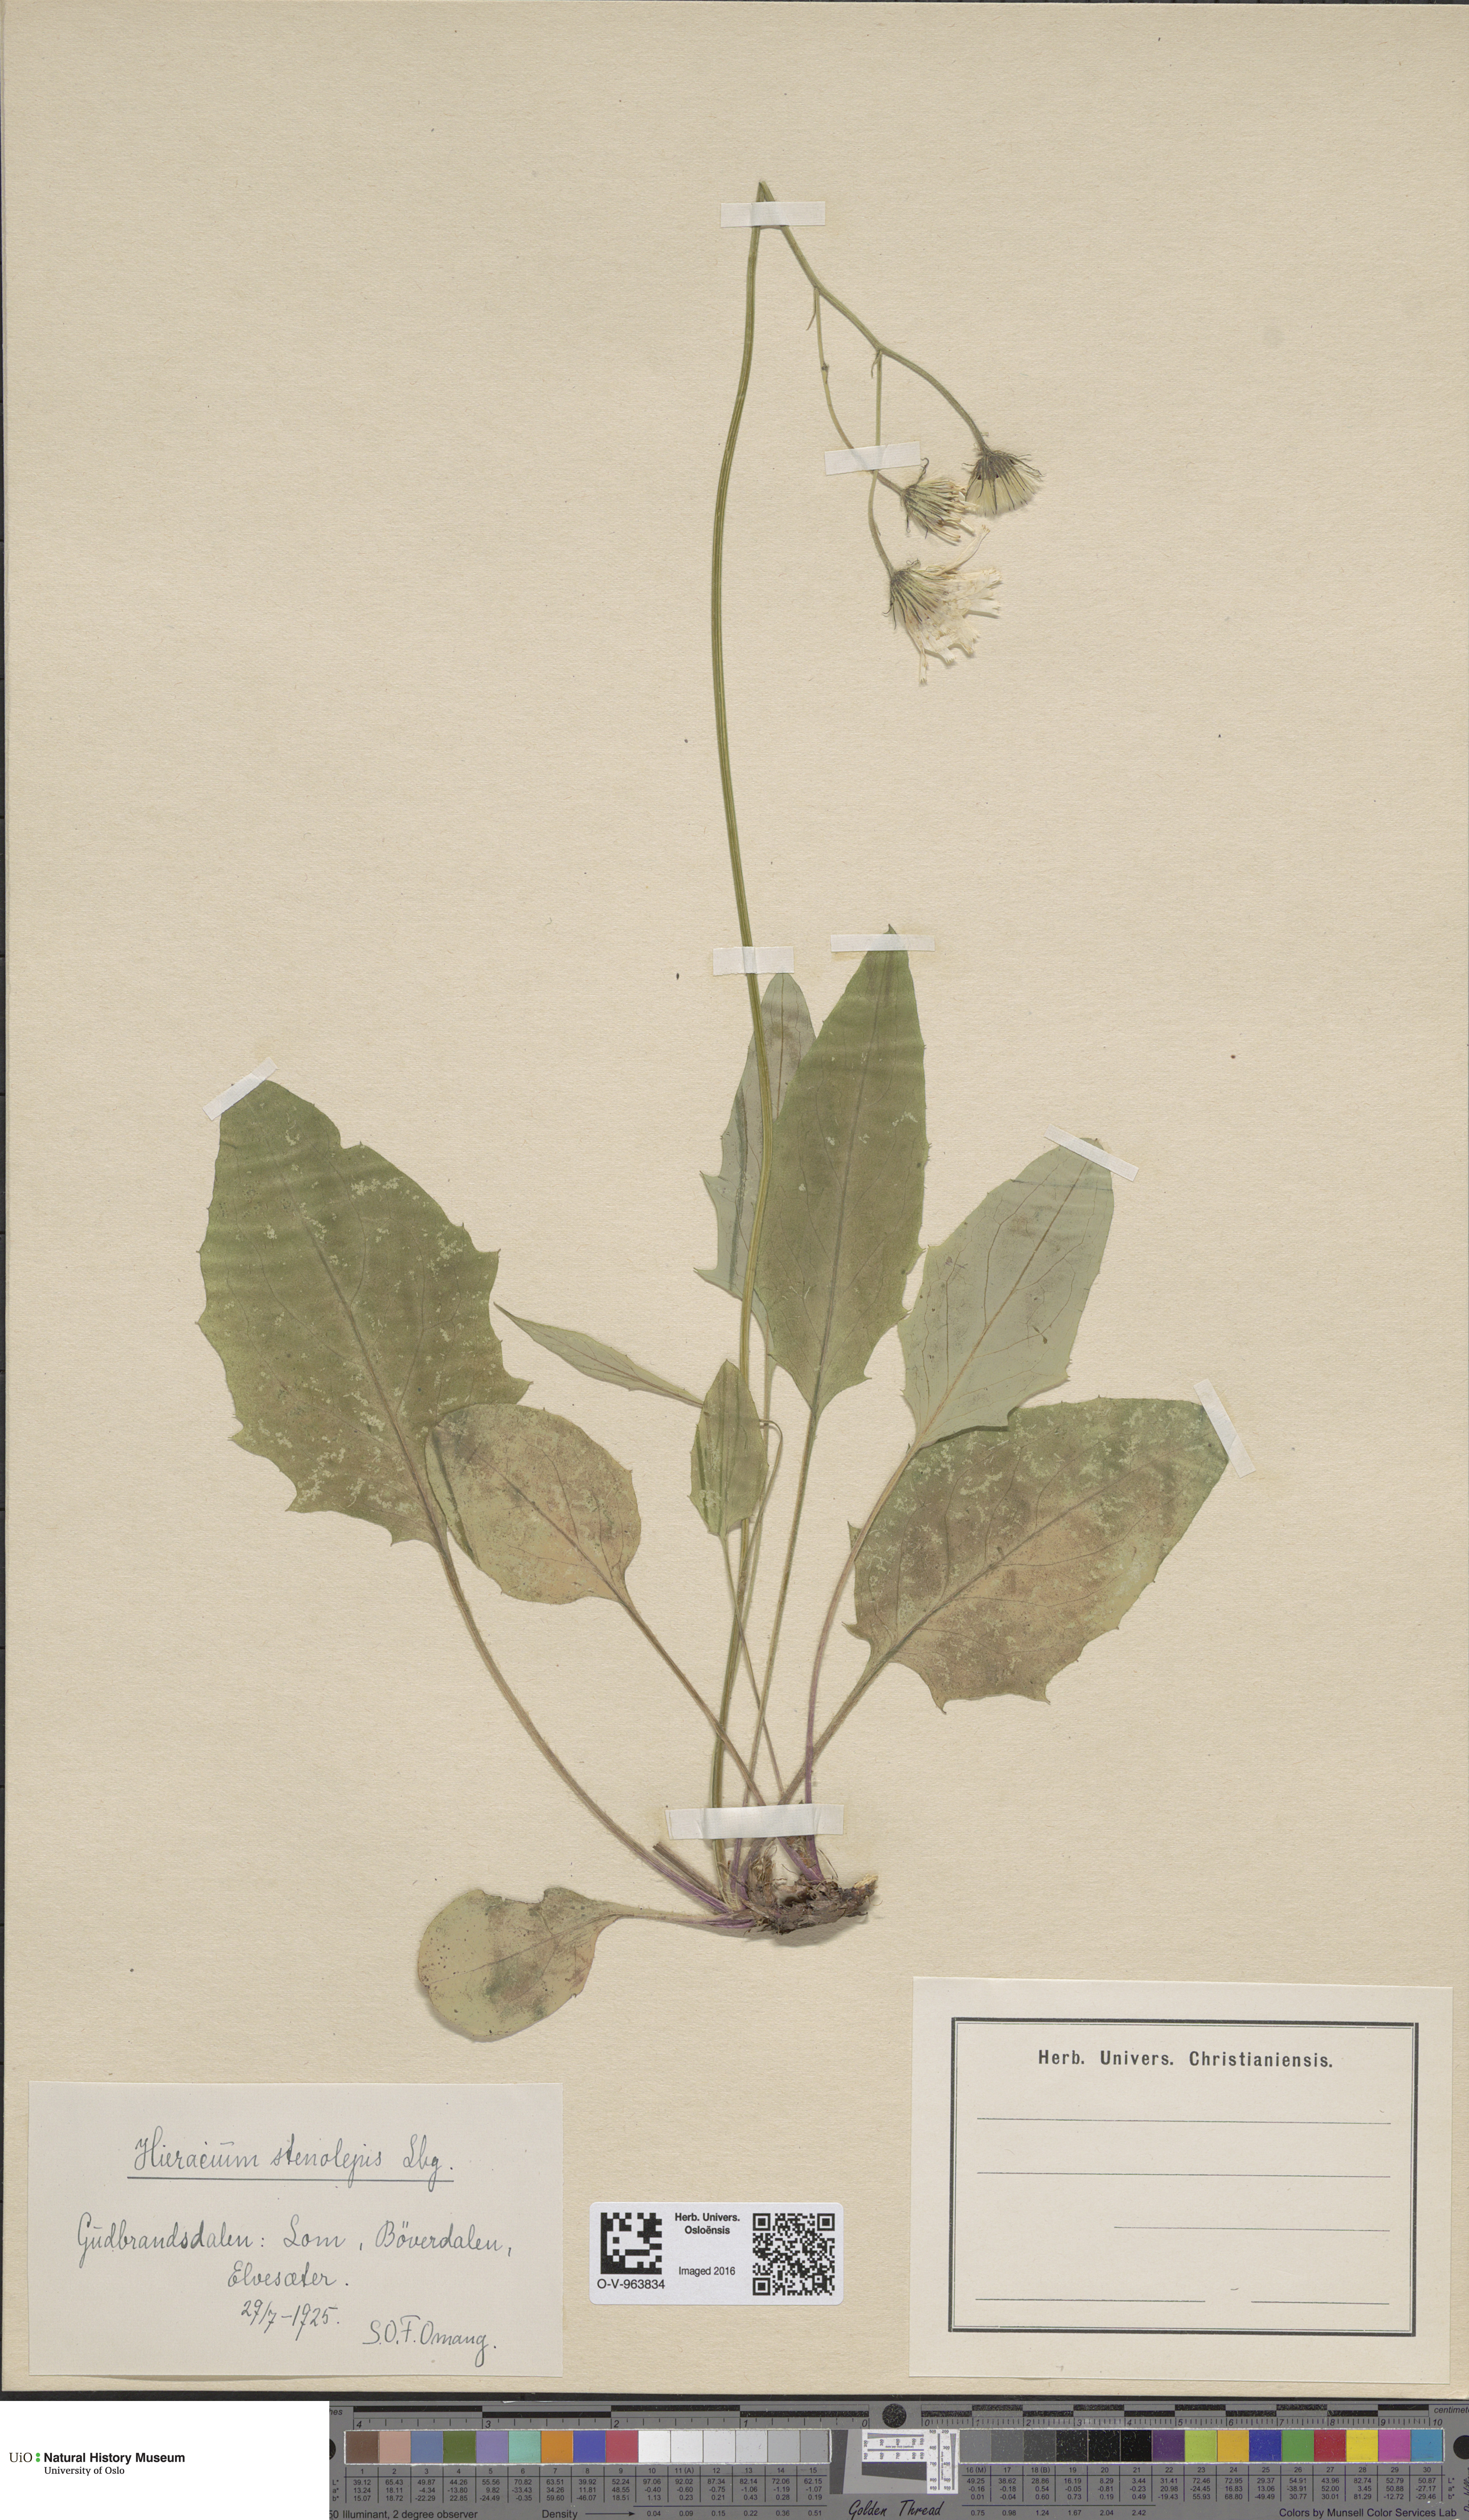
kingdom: Plantae
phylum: Tracheophyta
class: Magnoliopsida
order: Asterales
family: Asteraceae
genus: Hieracium
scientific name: Hieracium bifidum
